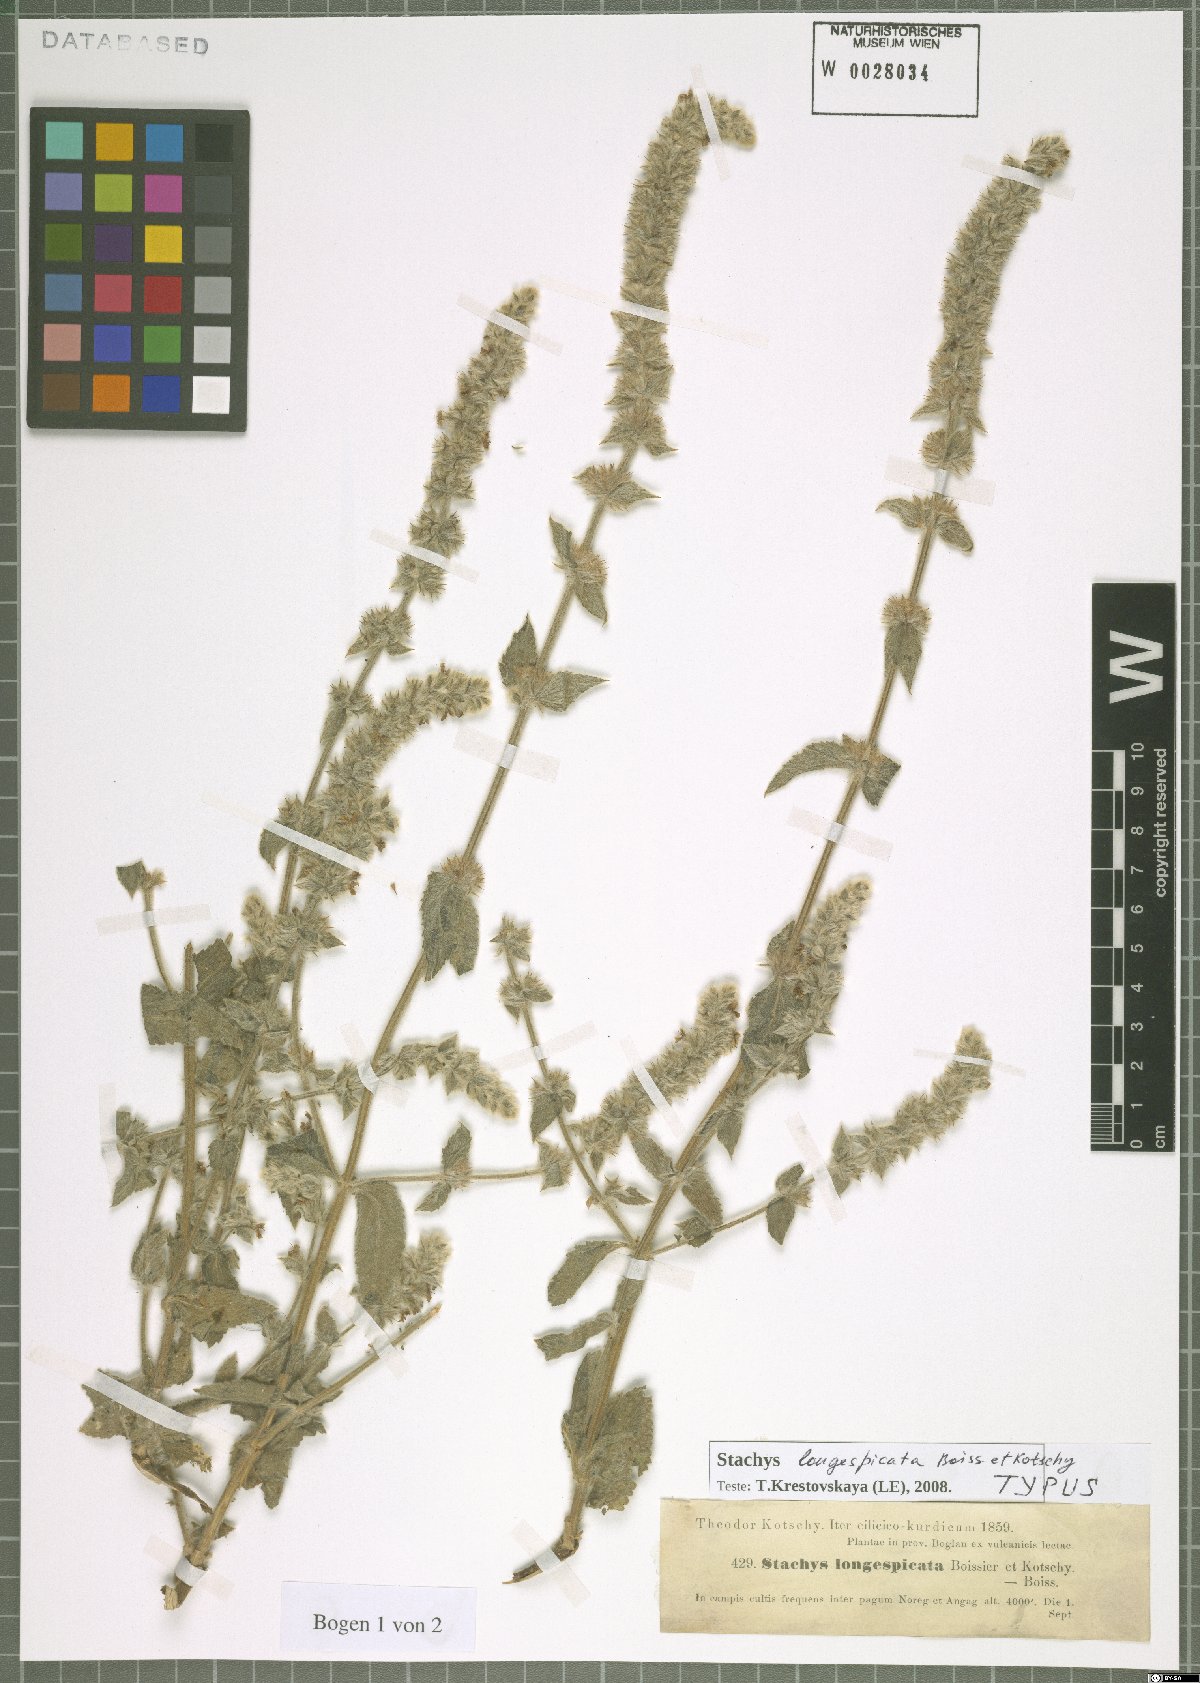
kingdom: Plantae
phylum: Tracheophyta
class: Magnoliopsida
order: Lamiales
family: Lamiaceae
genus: Stachys
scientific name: Stachys longispicata
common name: Longspike hedgenettle
